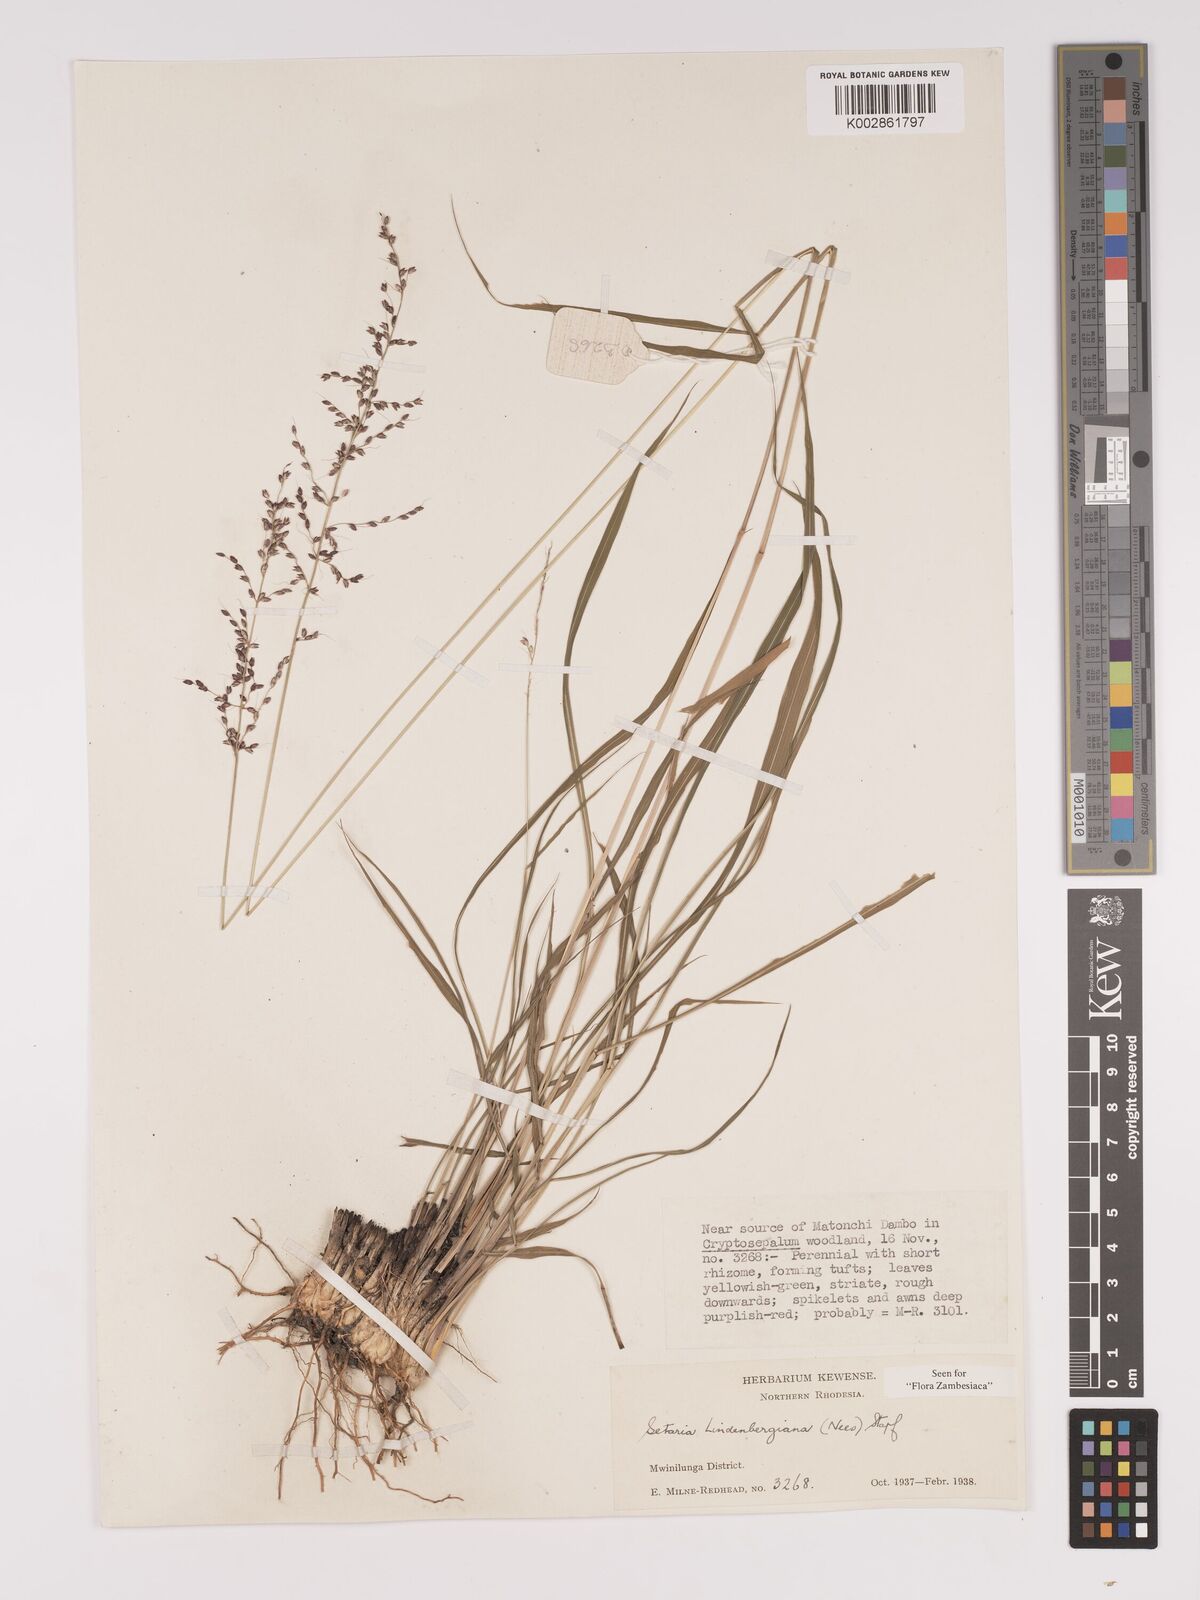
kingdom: Plantae
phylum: Tracheophyta
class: Liliopsida
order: Poales
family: Poaceae
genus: Setaria
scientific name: Setaria lindenbergiana
